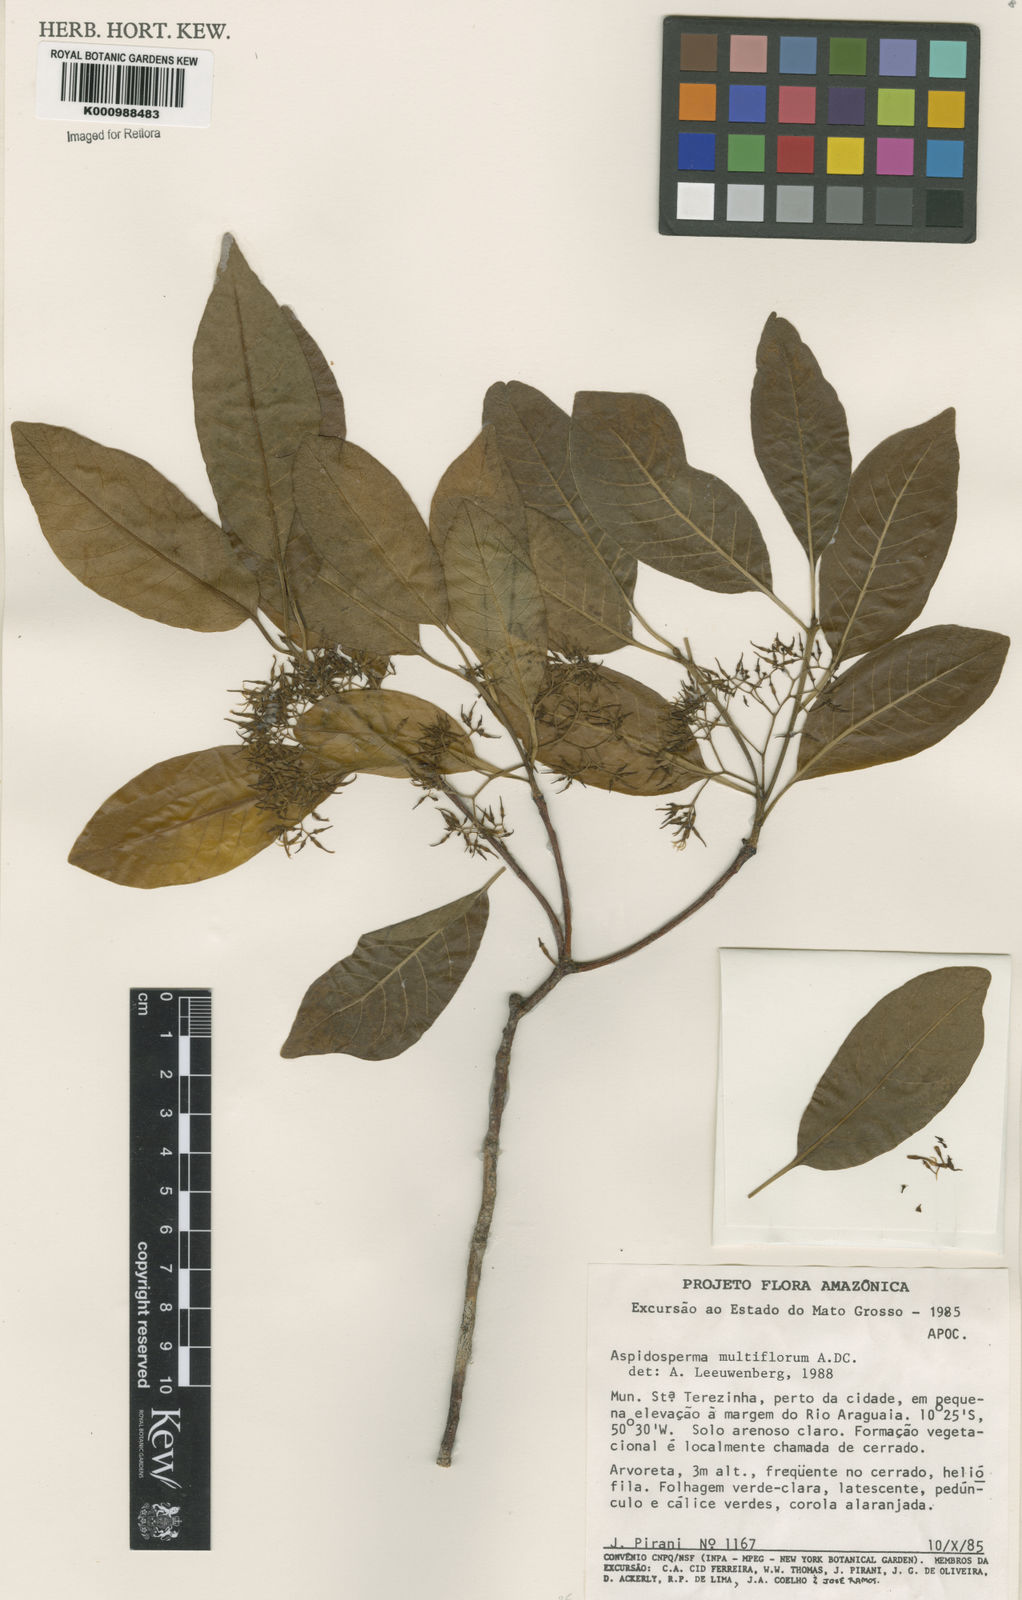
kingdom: Plantae
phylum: Tracheophyta
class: Magnoliopsida
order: Gentianales
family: Apocynaceae
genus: Aspidosperma
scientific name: Aspidosperma multiflorum
